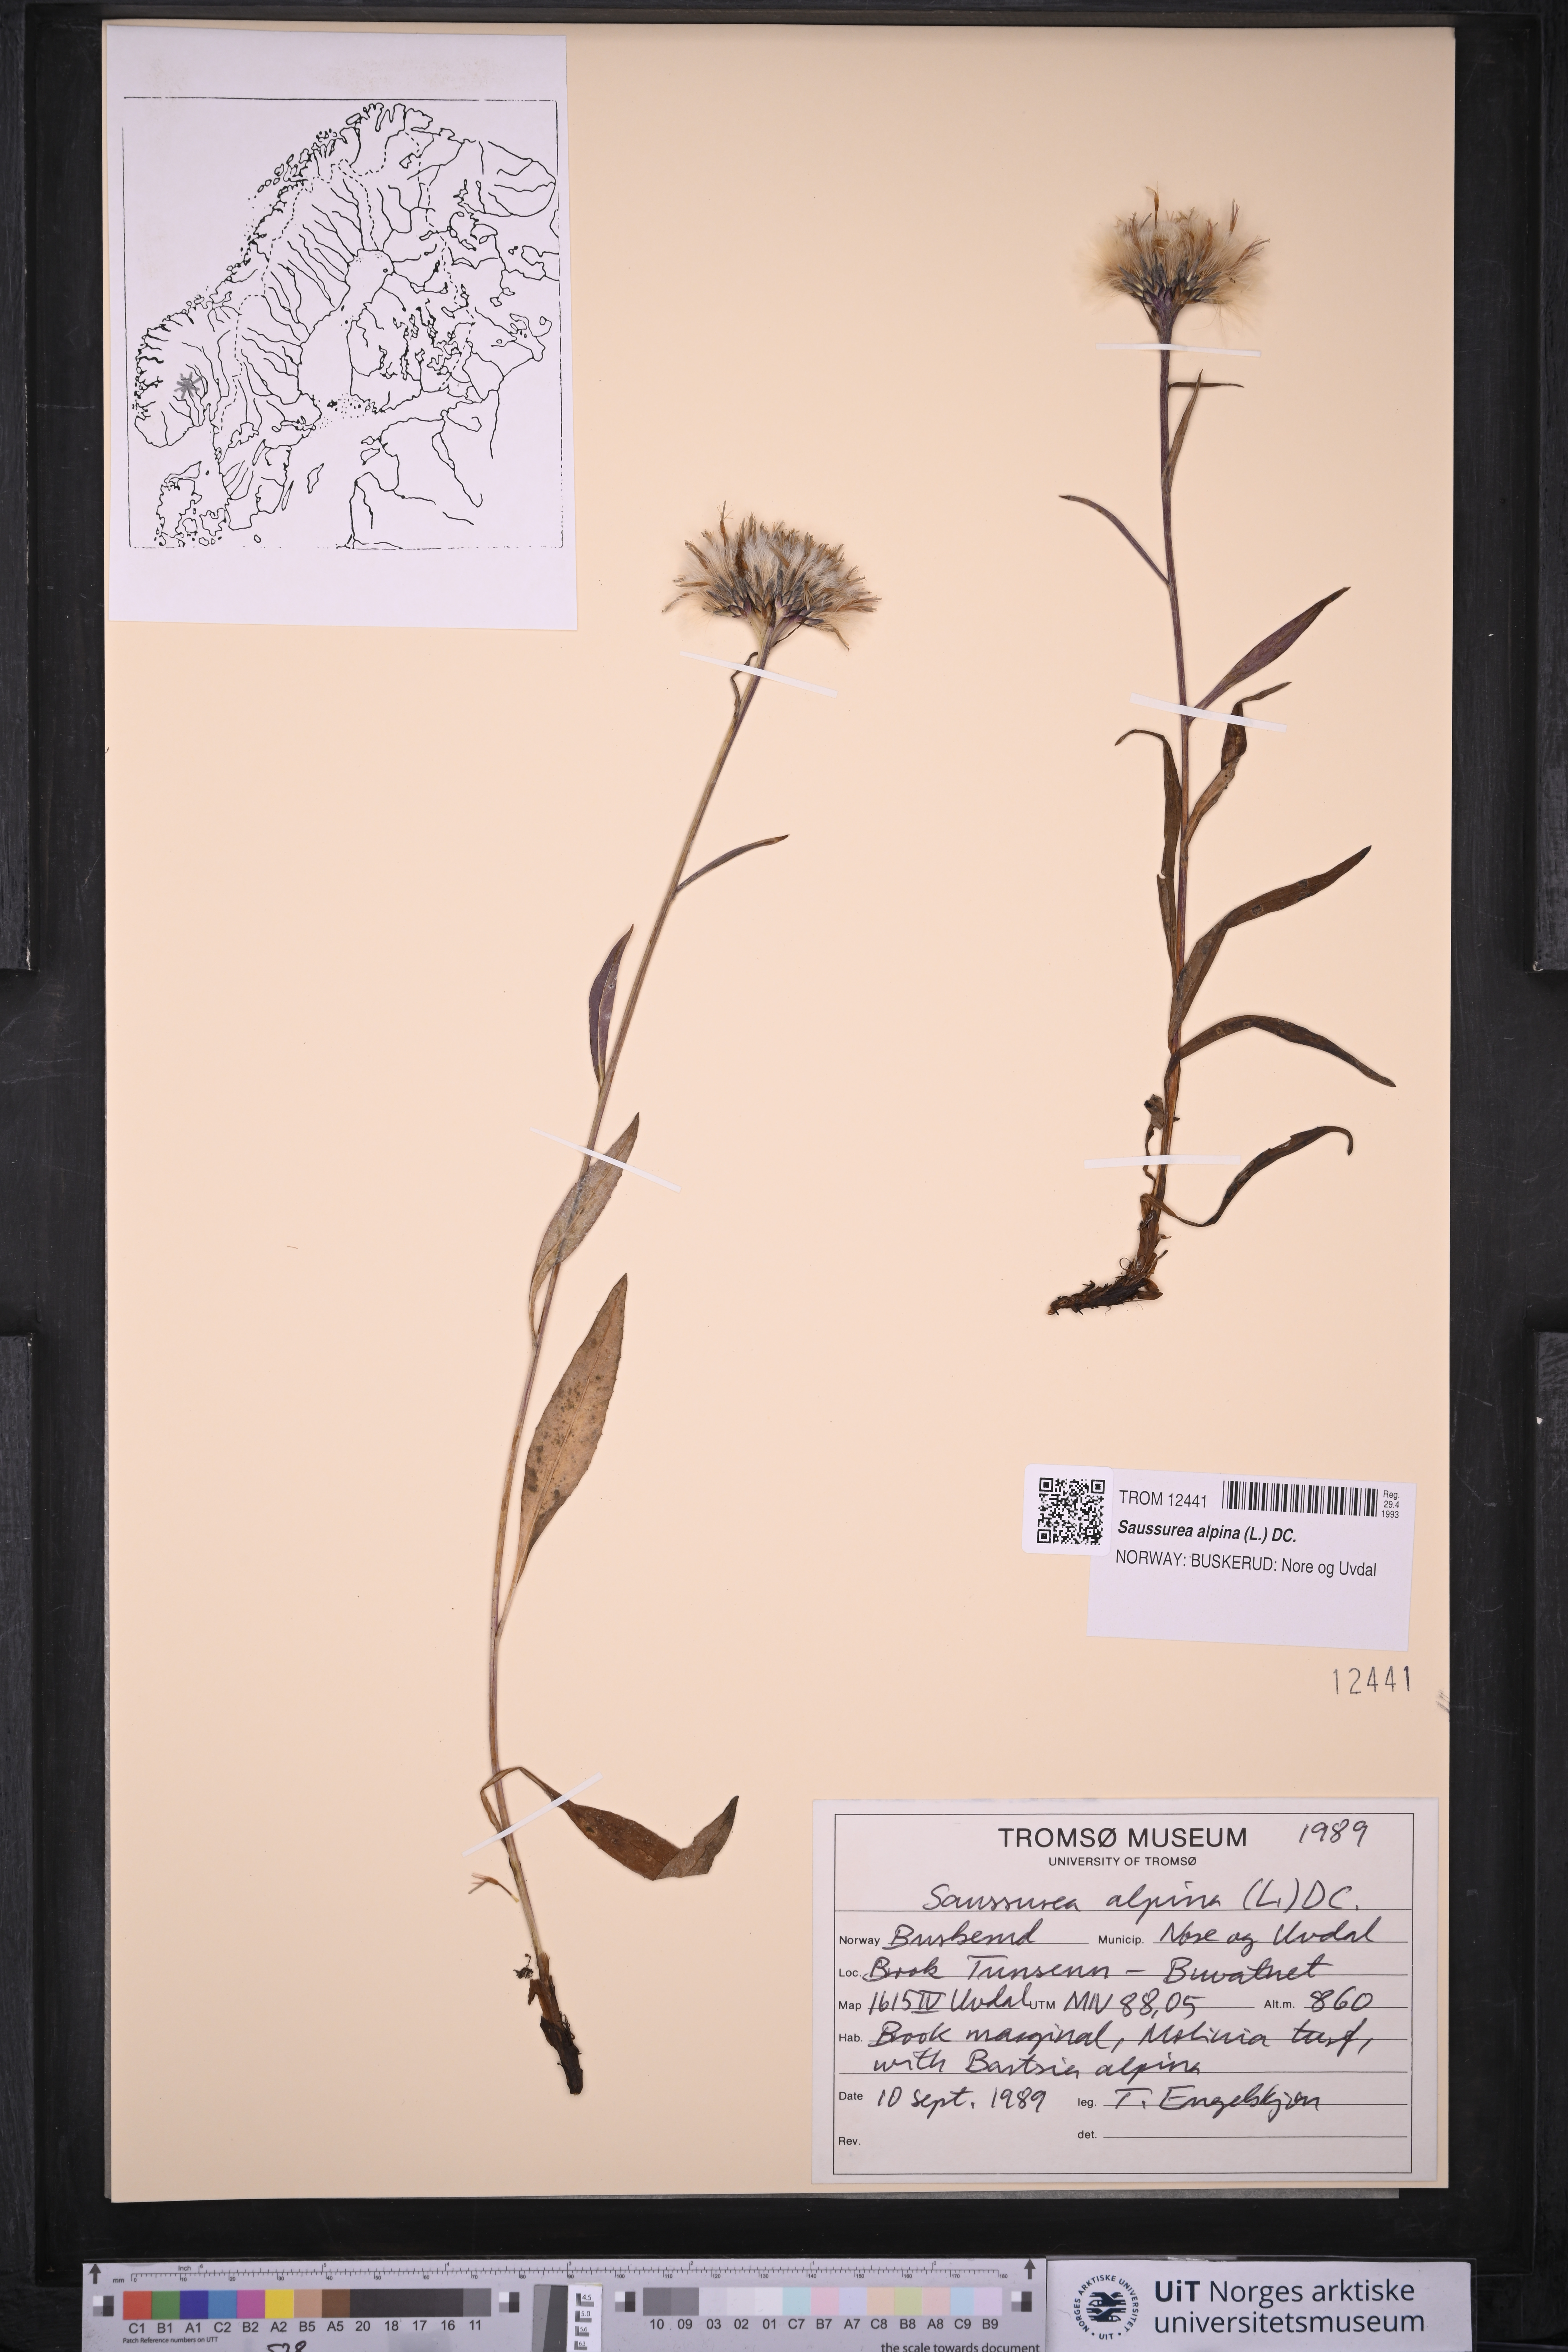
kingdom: Plantae
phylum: Tracheophyta
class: Magnoliopsida
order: Asterales
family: Asteraceae
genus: Saussurea
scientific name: Saussurea alpina
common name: Alpine saw-wort
